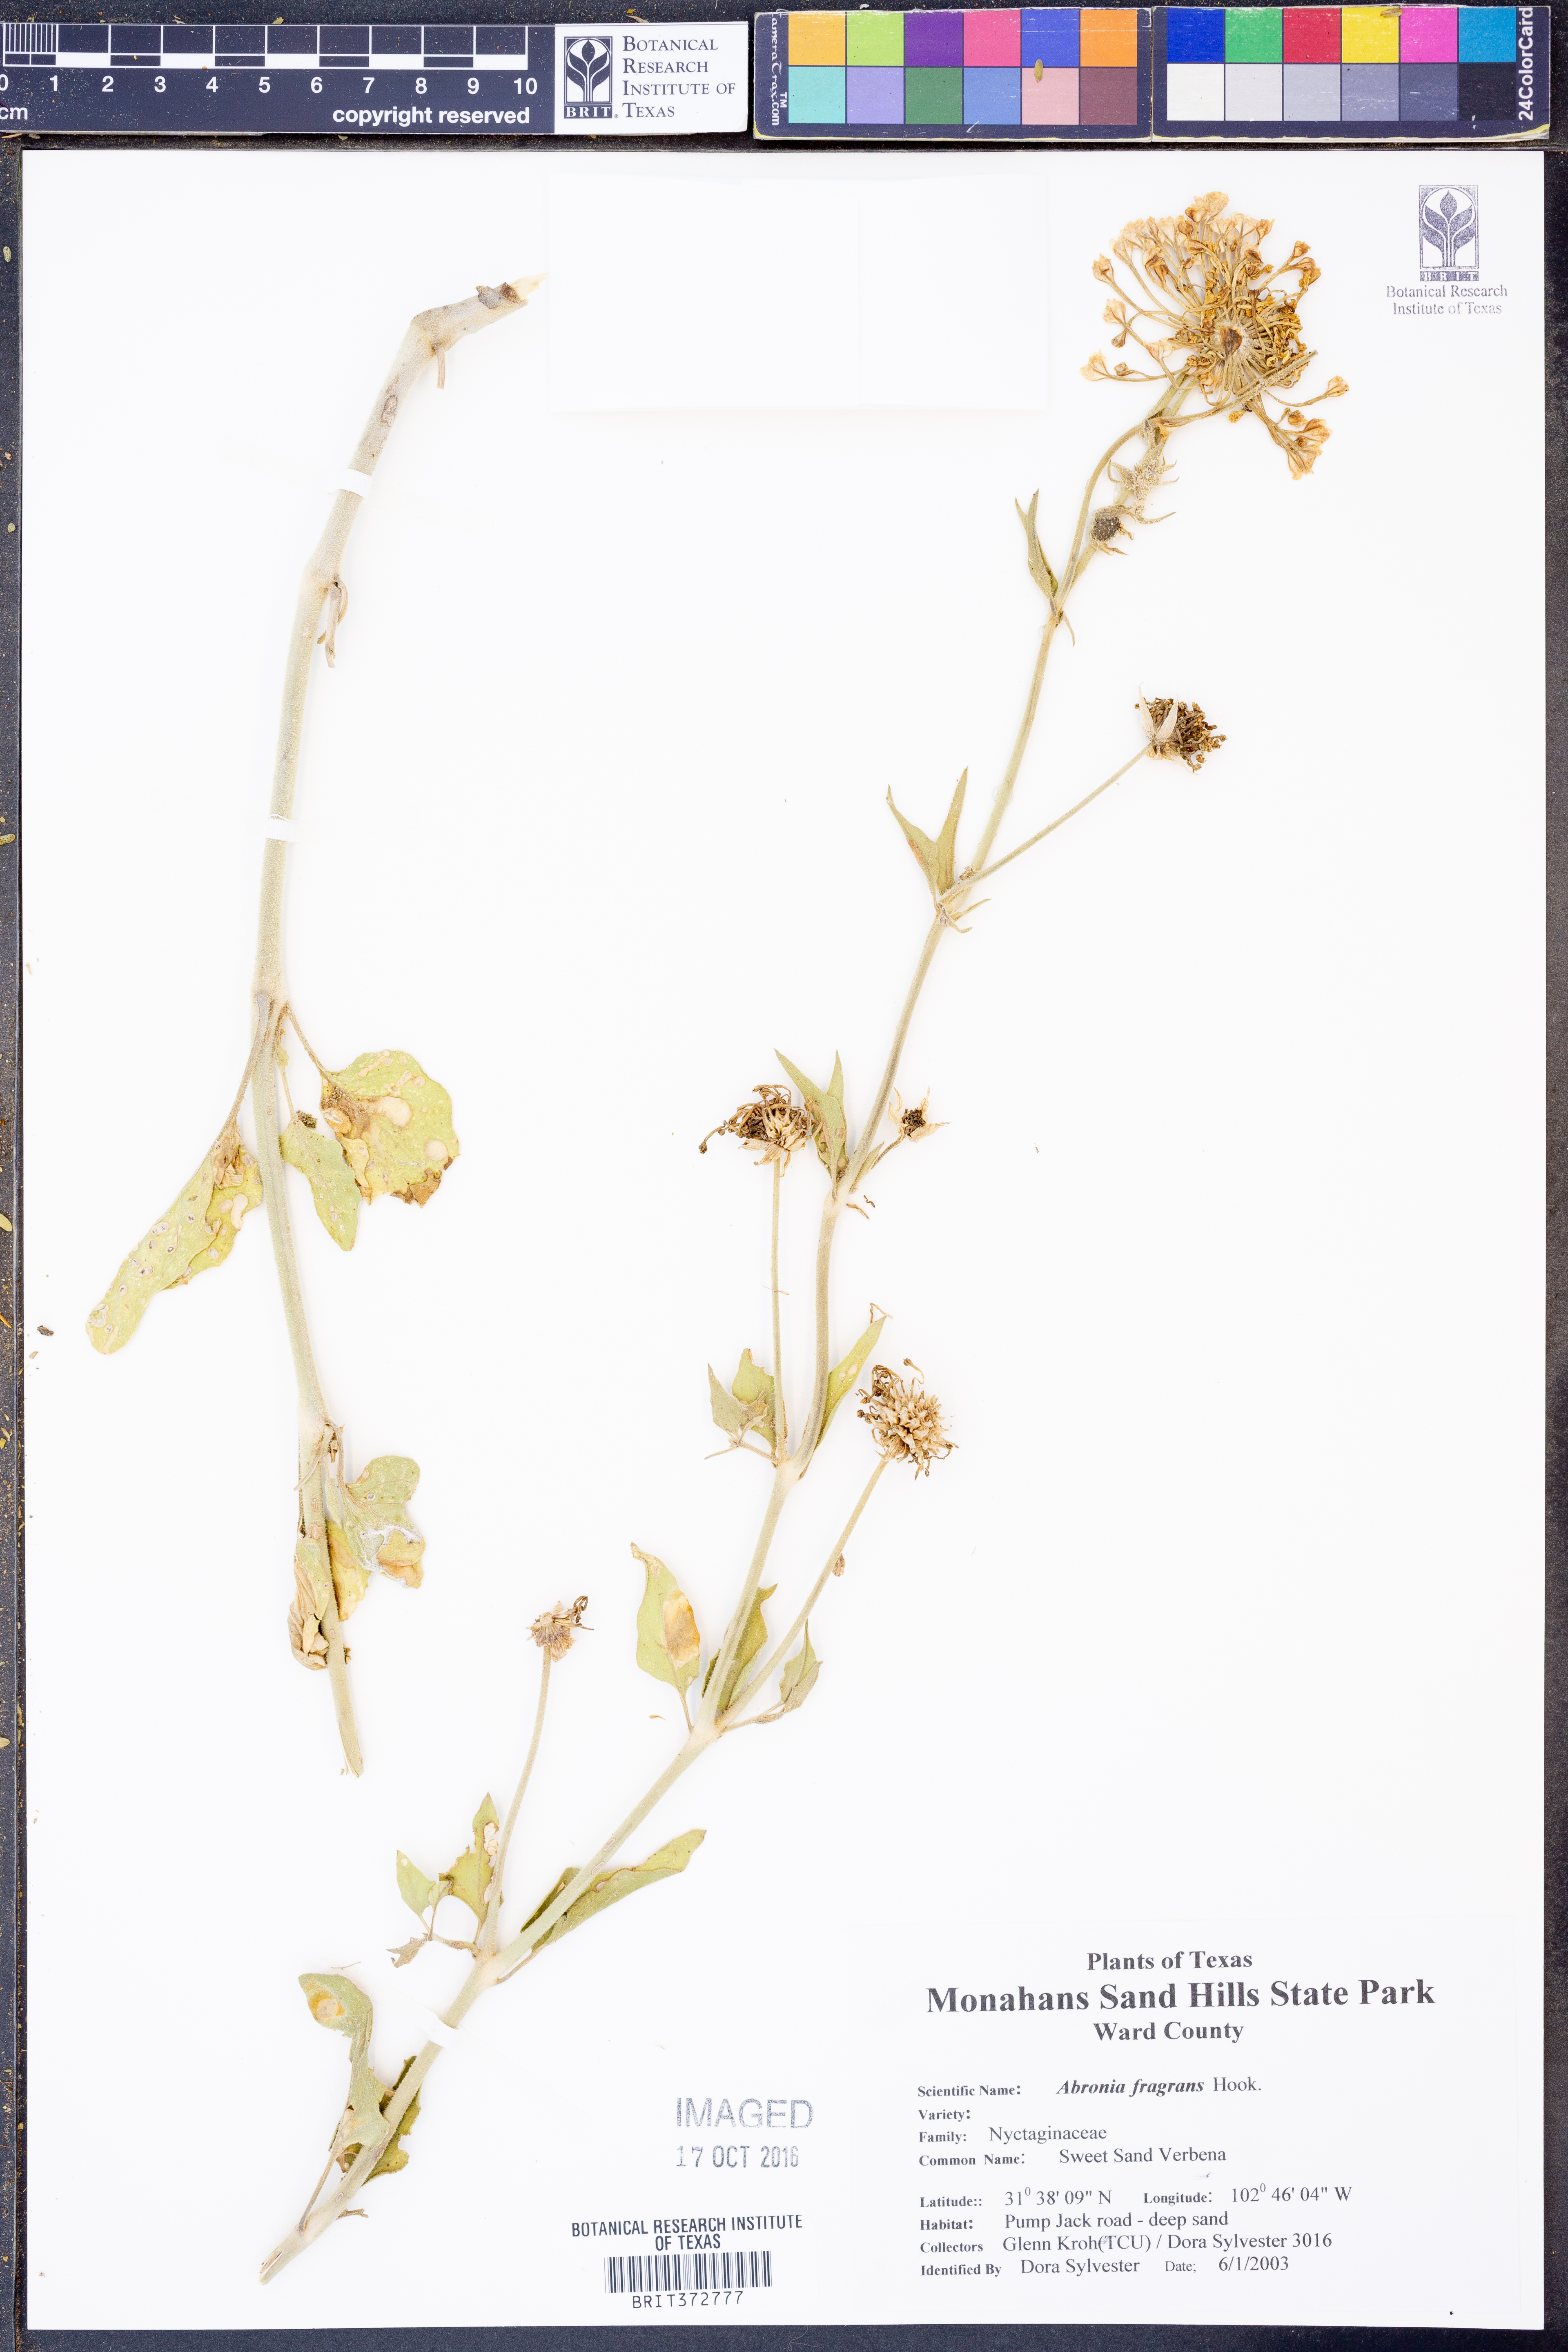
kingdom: Plantae
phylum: Tracheophyta
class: Magnoliopsida
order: Caryophyllales
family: Nyctaginaceae
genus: Abronia
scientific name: Abronia fragrans
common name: Fragrant sand-verbena
